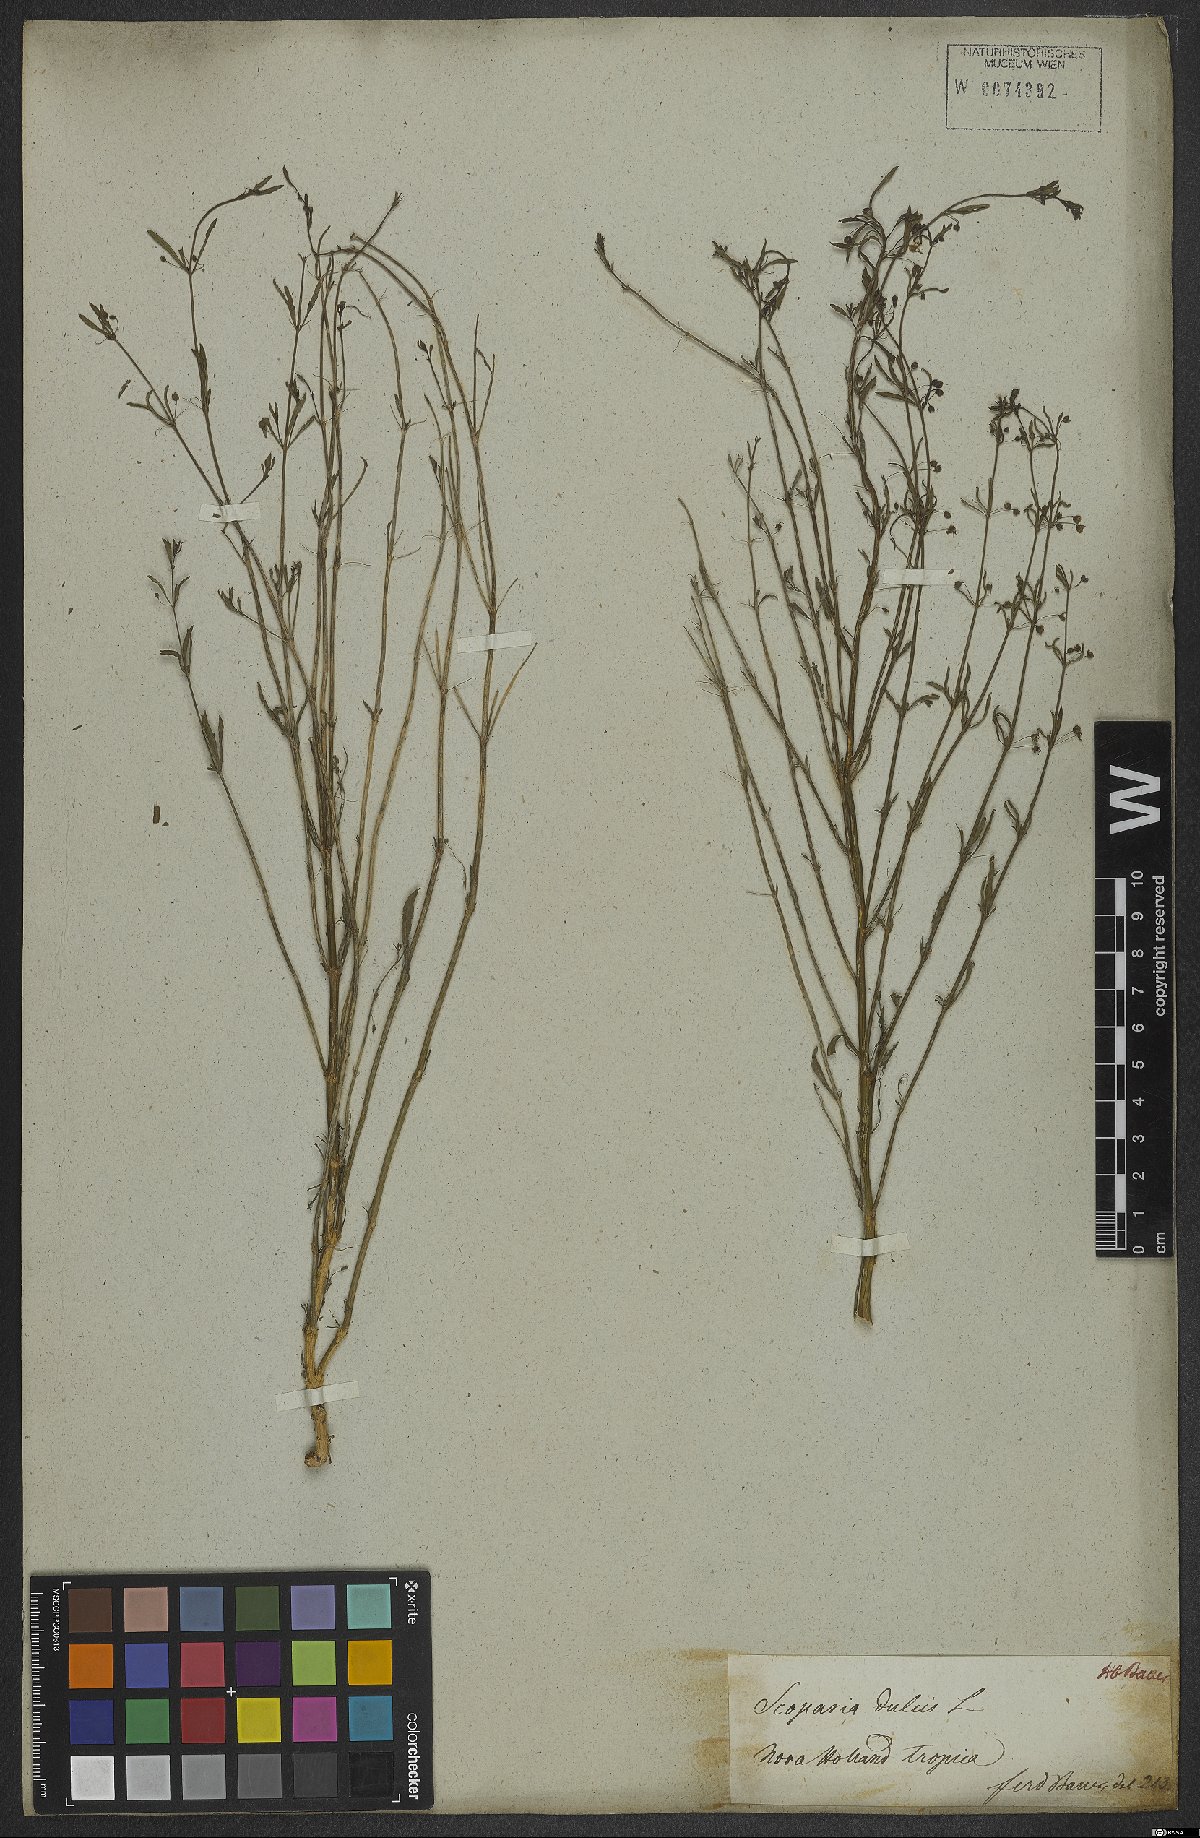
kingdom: Plantae
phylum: Tracheophyta
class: Magnoliopsida
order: Lamiales
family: Plantaginaceae
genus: Scoparia
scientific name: Scoparia dulcis
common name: Scoparia-weed
